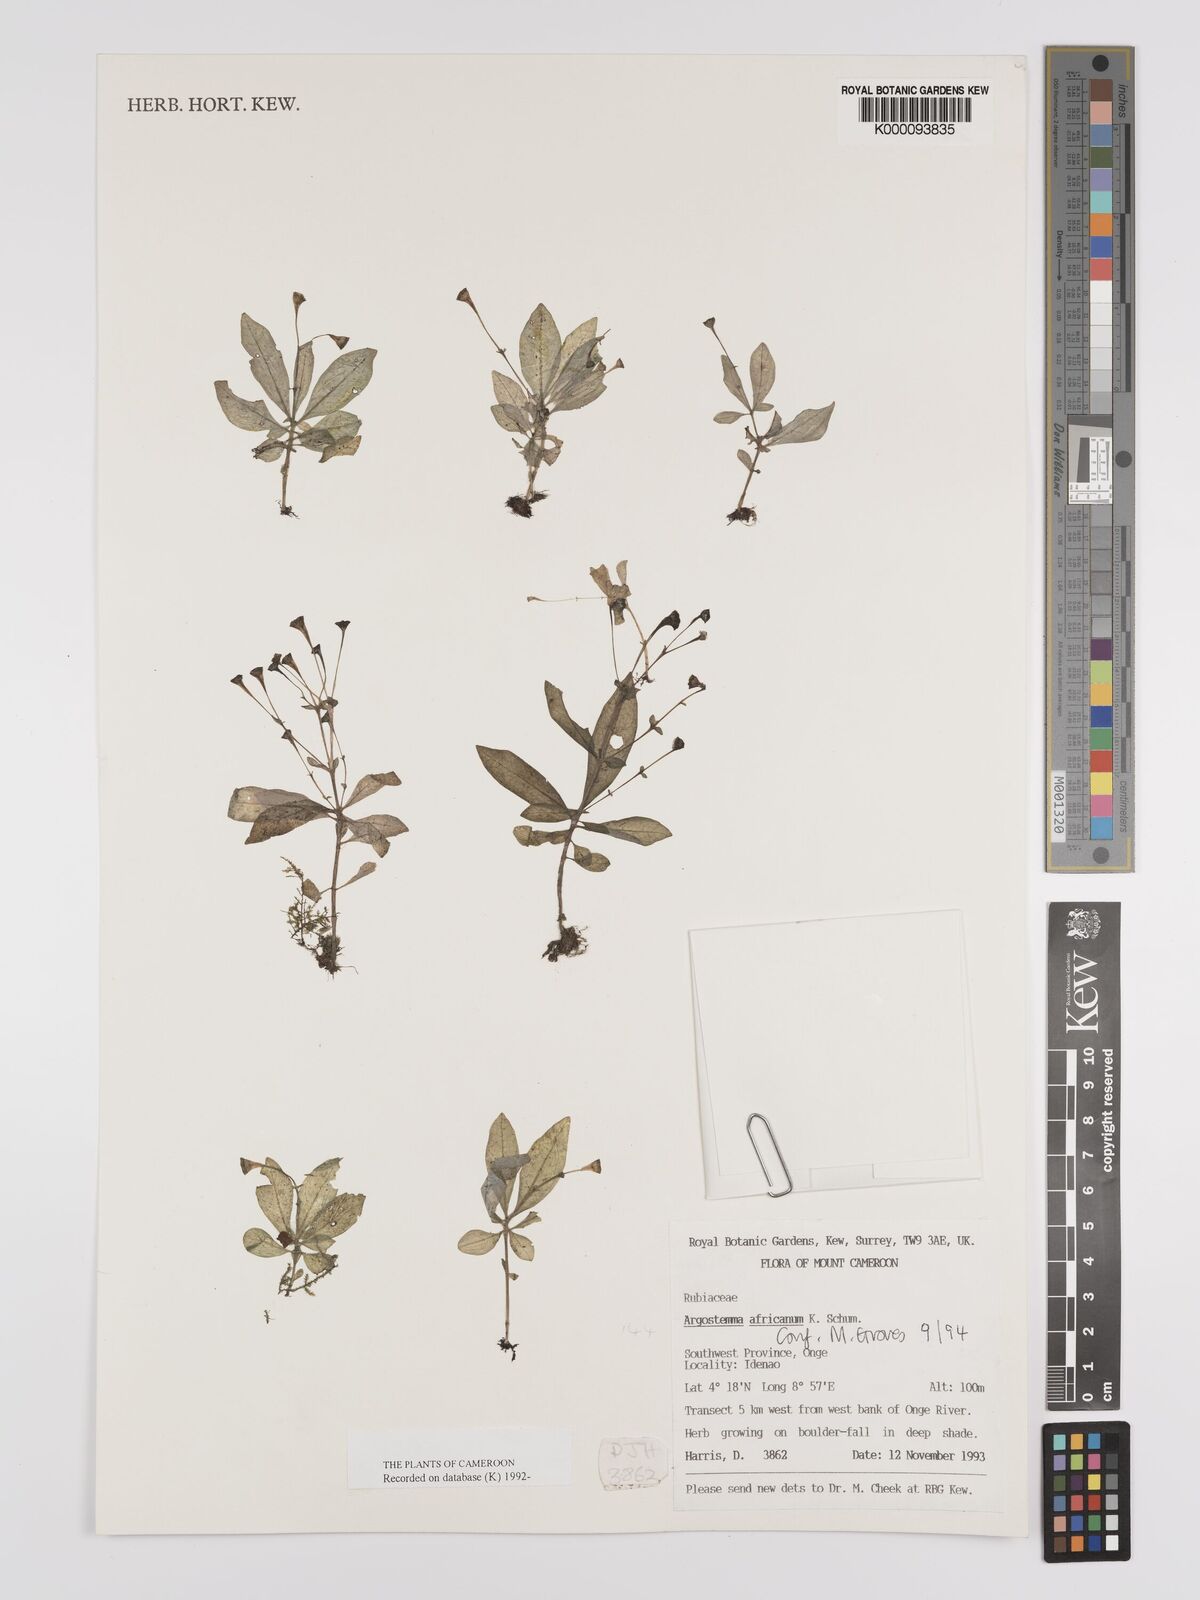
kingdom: Plantae
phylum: Tracheophyta
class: Magnoliopsida
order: Gentianales
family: Rubiaceae
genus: Argostemma
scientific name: Argostemma africanum
